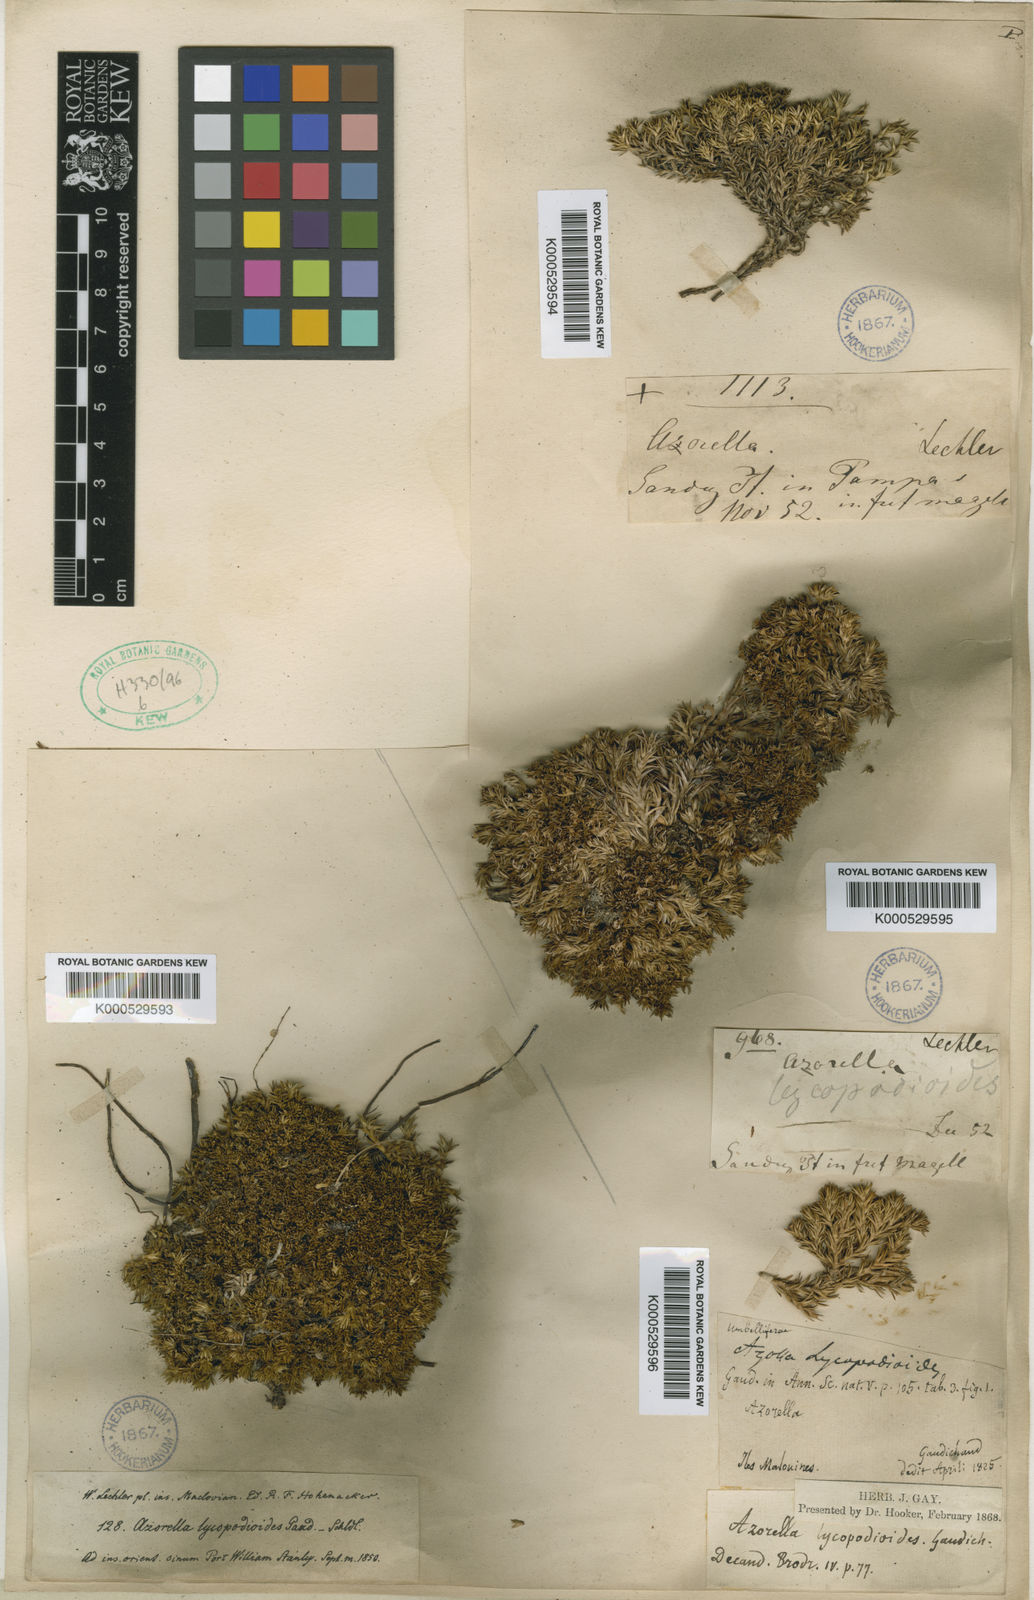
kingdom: Plantae
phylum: Tracheophyta
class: Magnoliopsida
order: Apiales
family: Apiaceae
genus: Azorella
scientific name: Azorella lycopodioides
